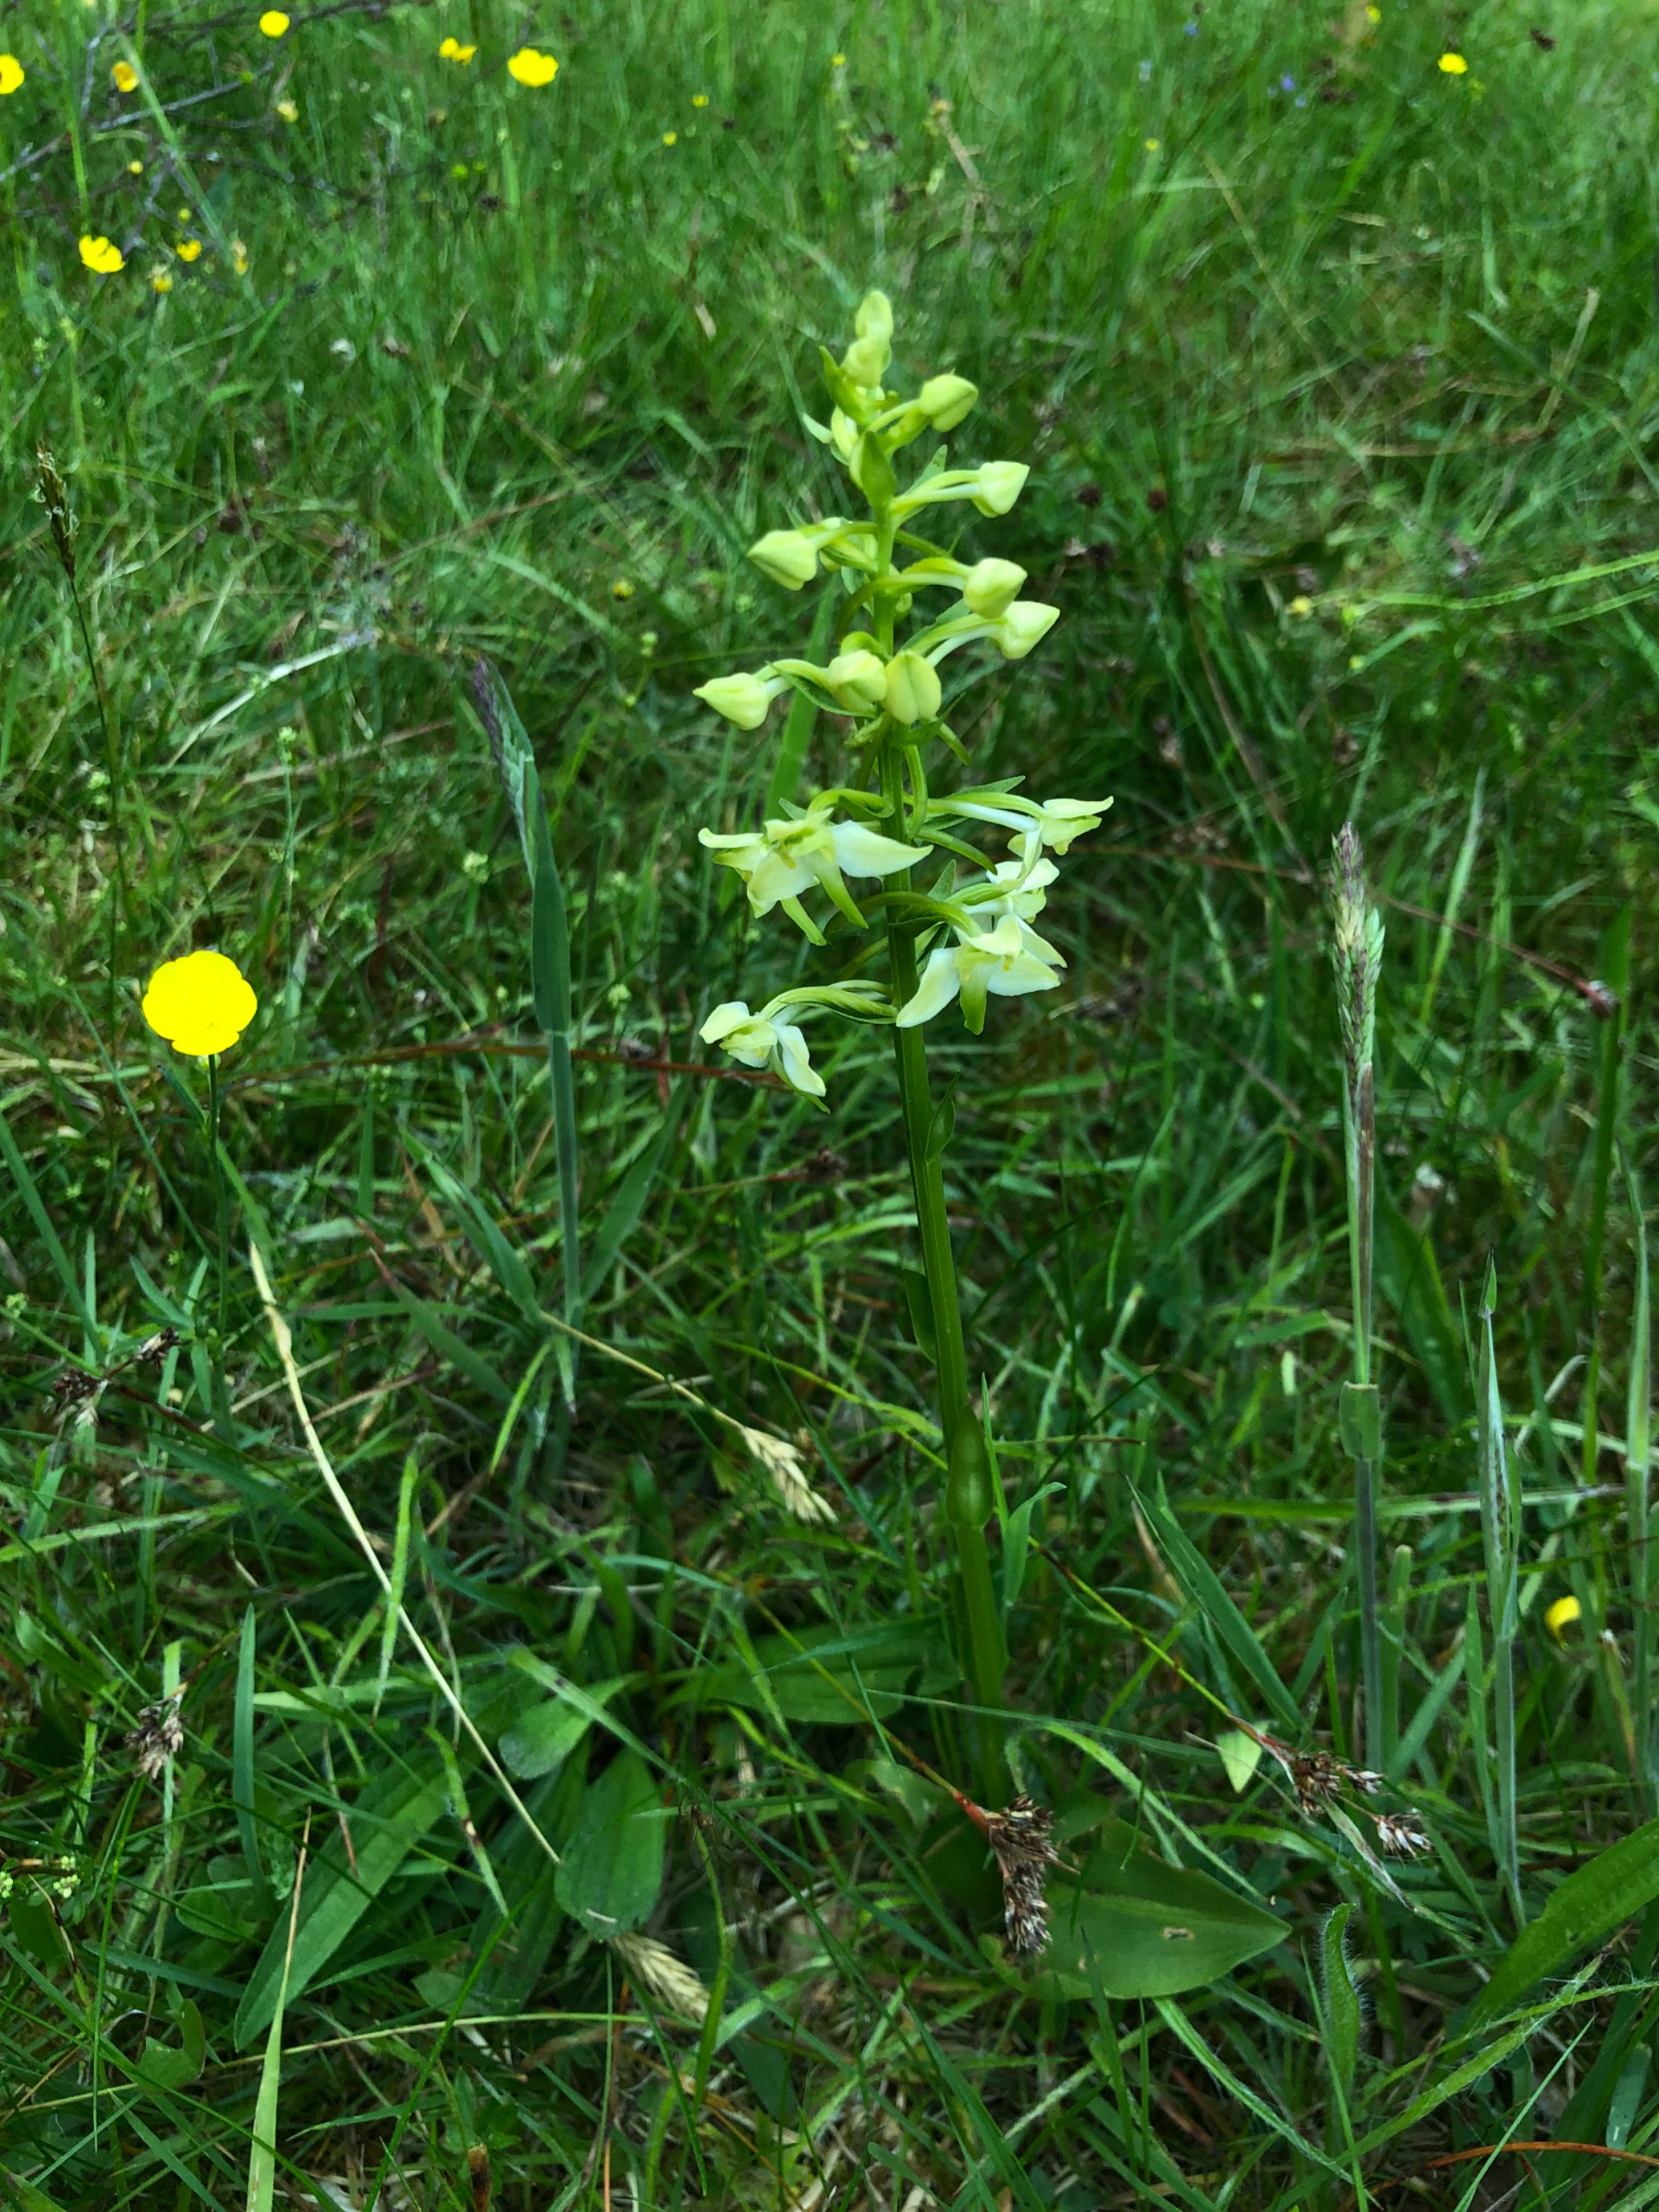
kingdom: Plantae
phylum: Tracheophyta
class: Liliopsida
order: Asparagales
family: Orchidaceae
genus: Platanthera
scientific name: Platanthera chlorantha
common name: Skov-gøgelilje
